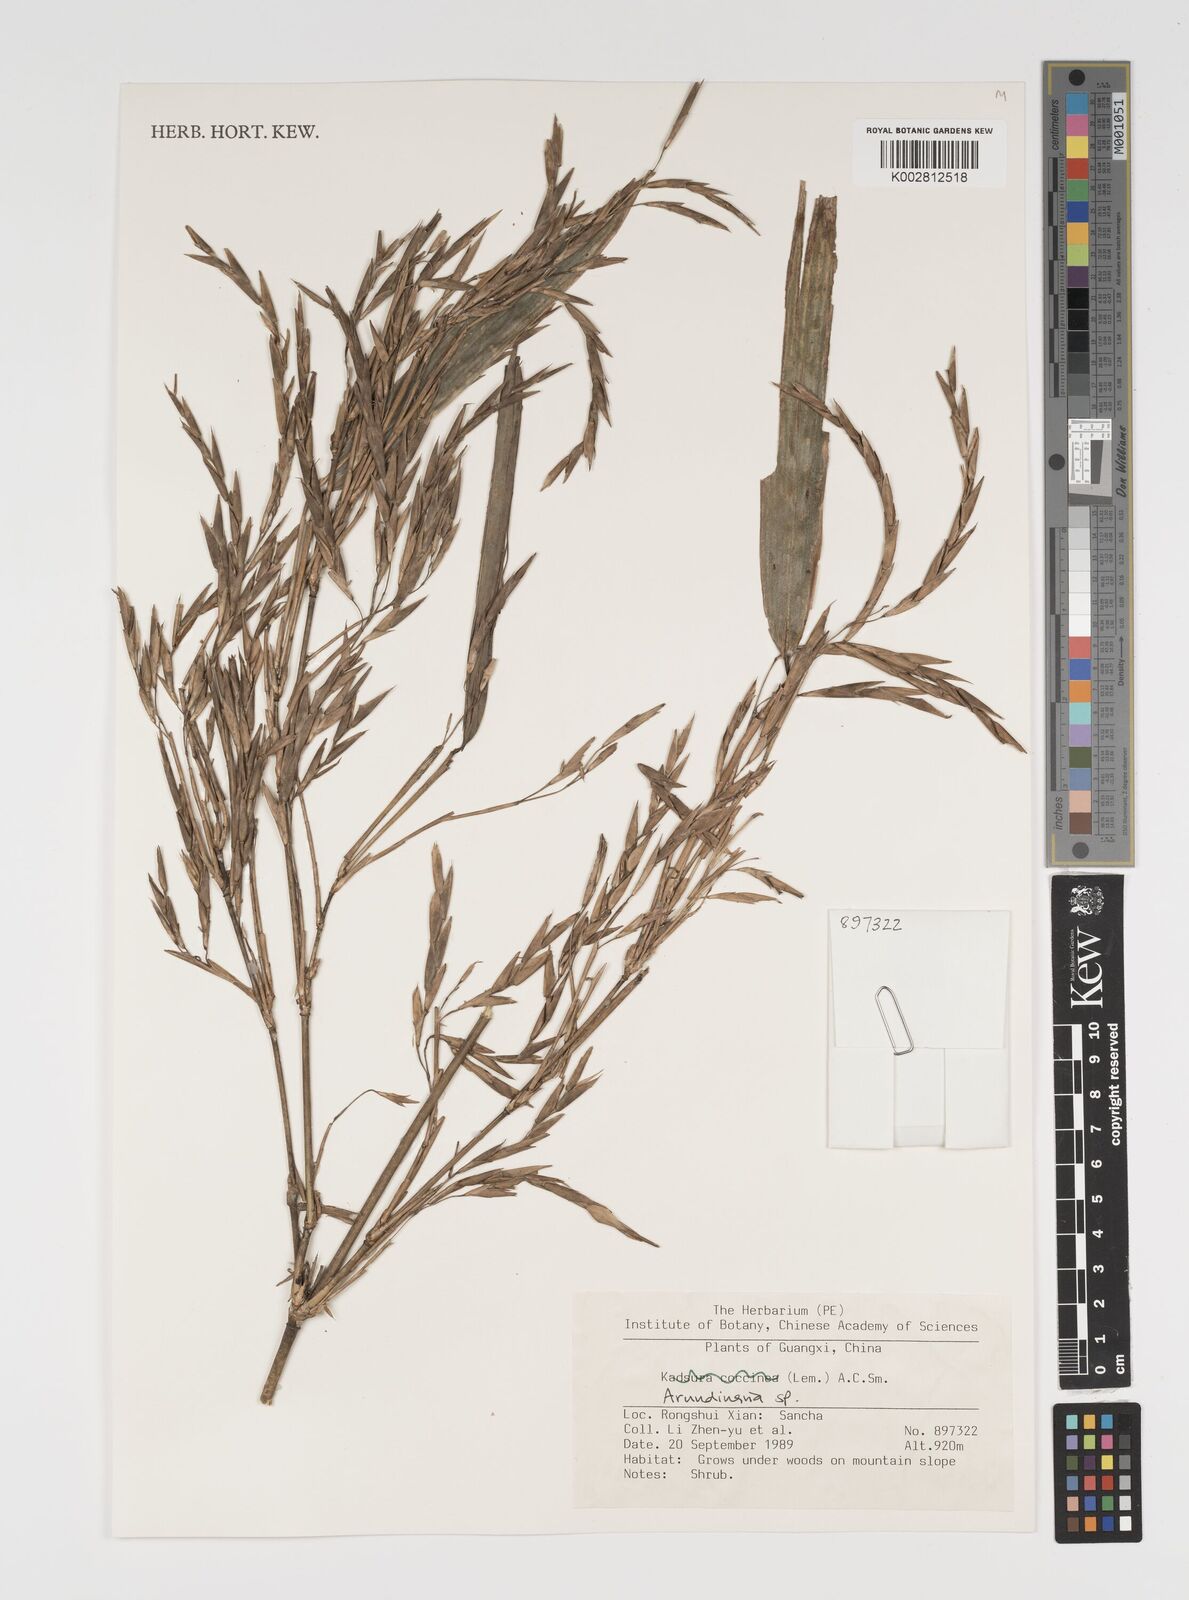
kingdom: Plantae
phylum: Tracheophyta
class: Liliopsida
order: Poales
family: Poaceae
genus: Arundinaria
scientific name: Arundinaria
